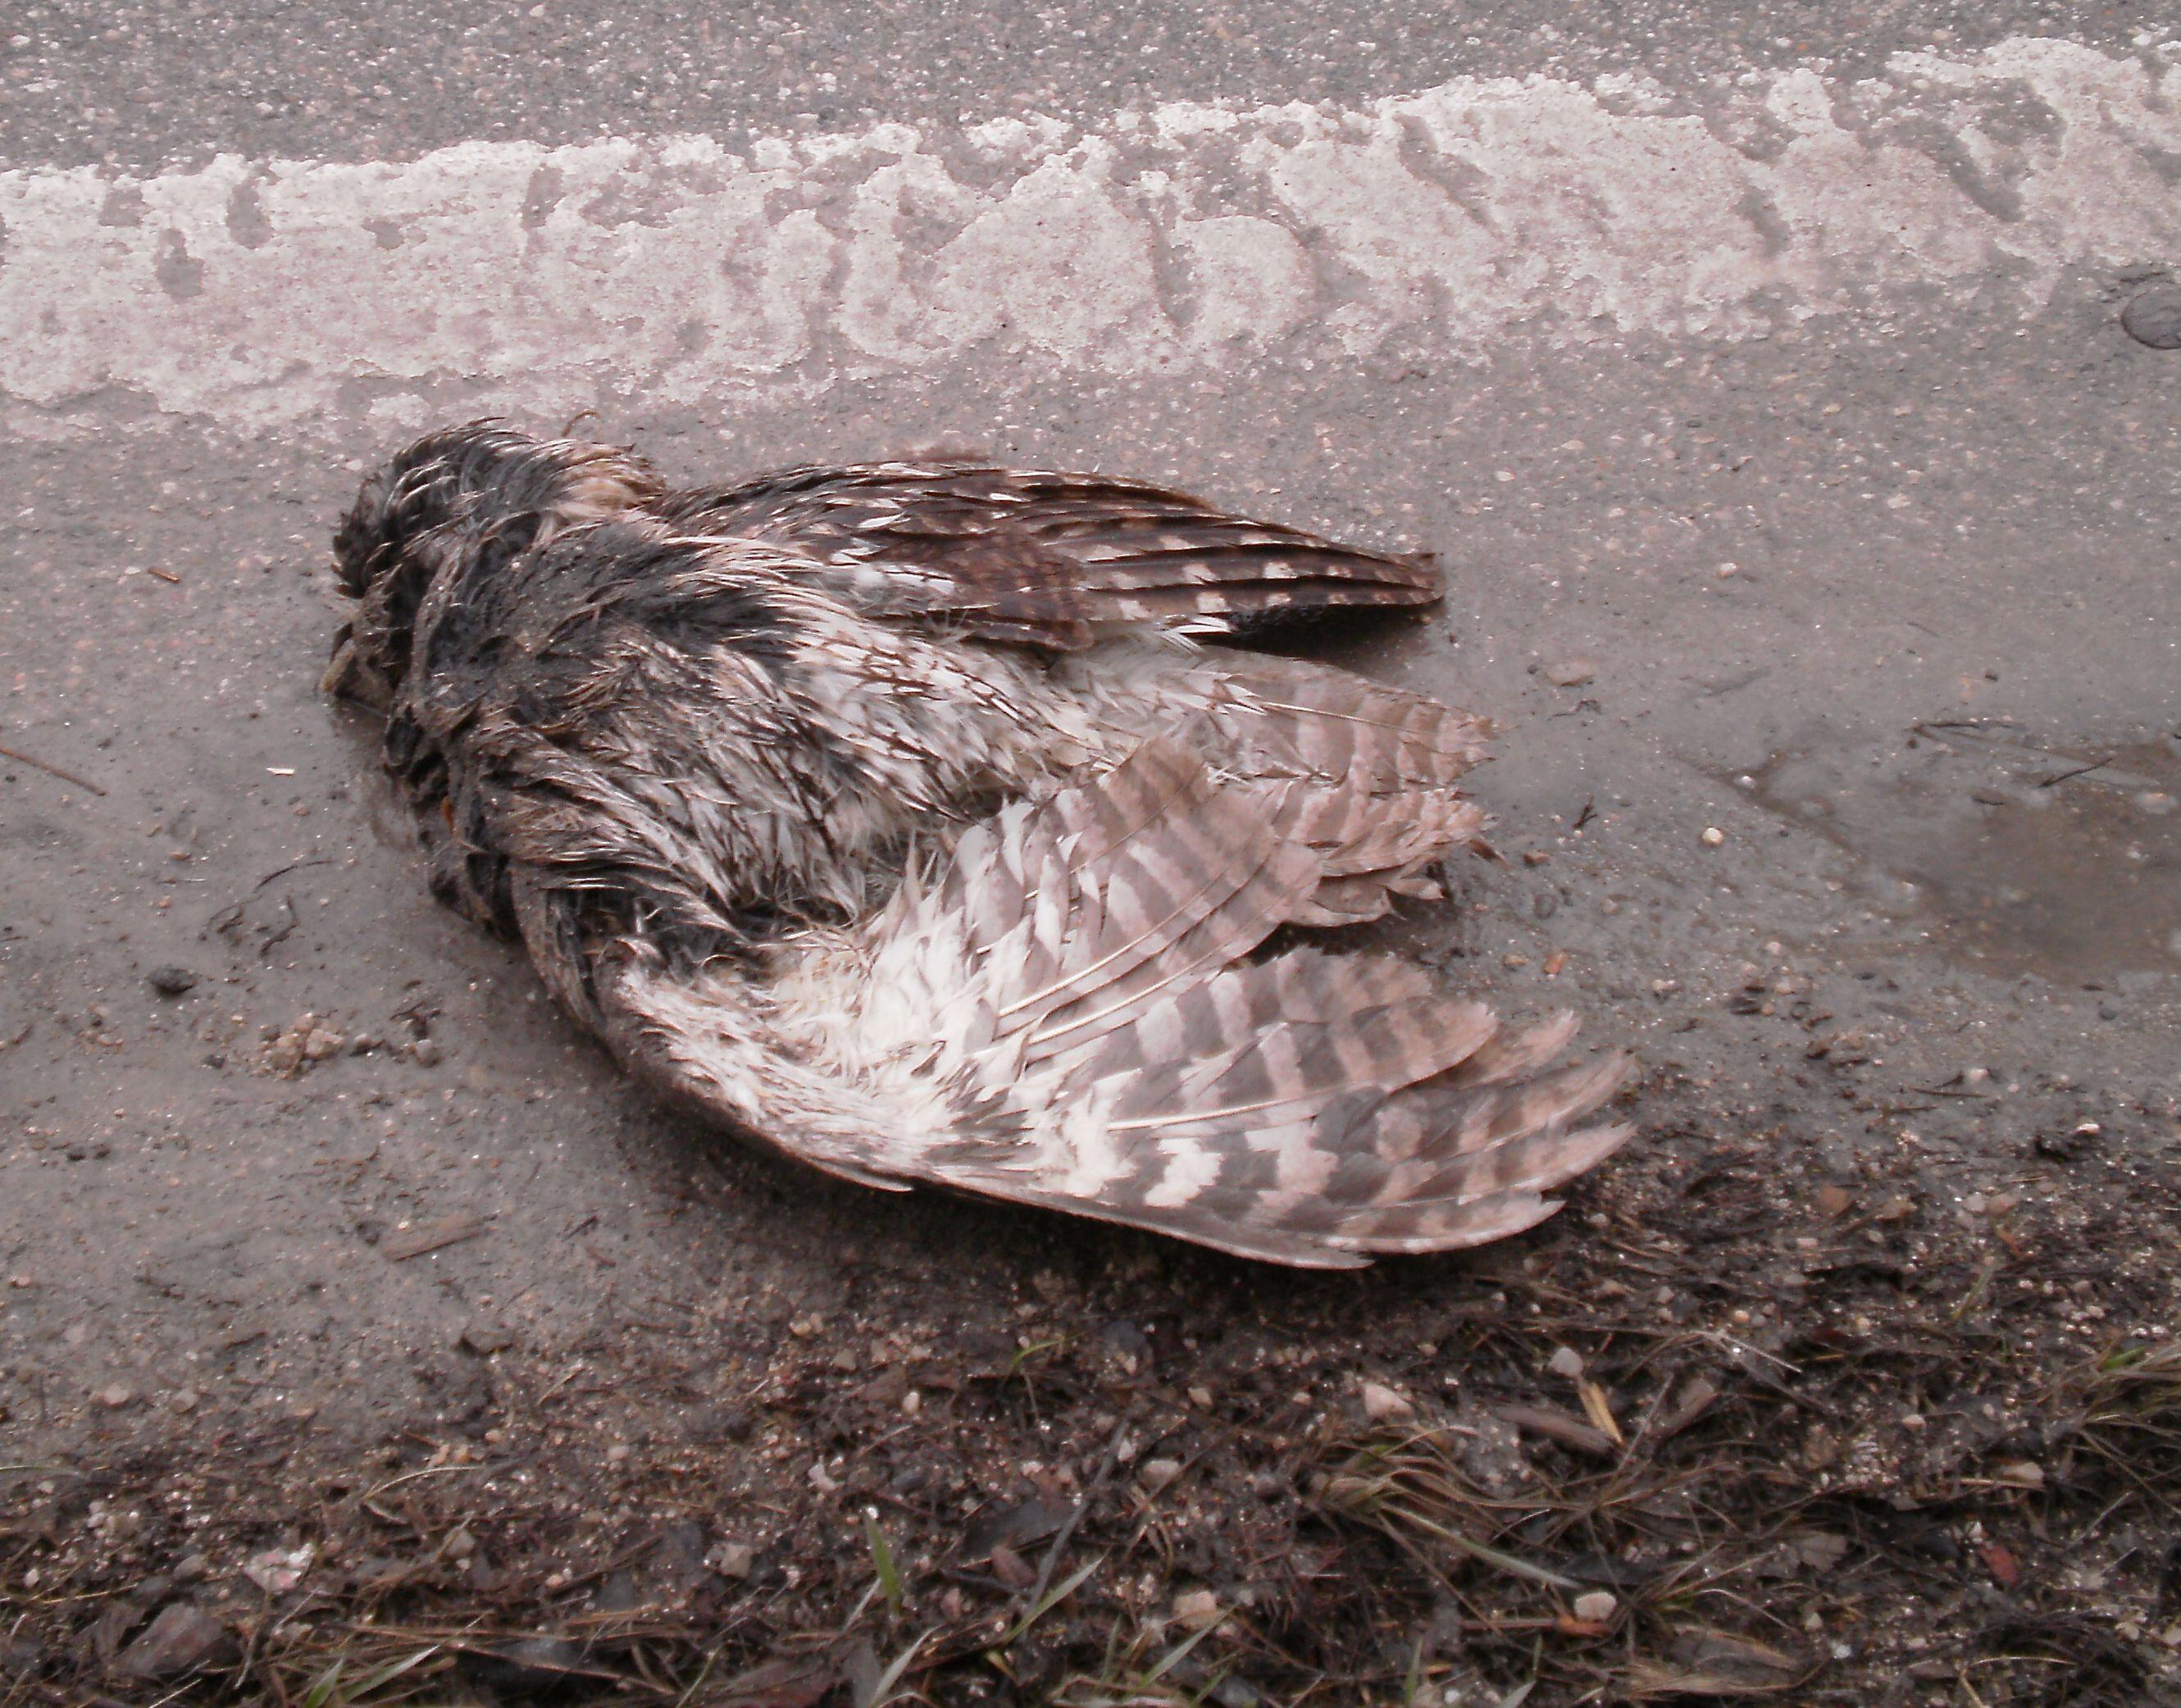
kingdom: Animalia
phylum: Chordata
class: Aves
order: Strigiformes
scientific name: Strigiformes
